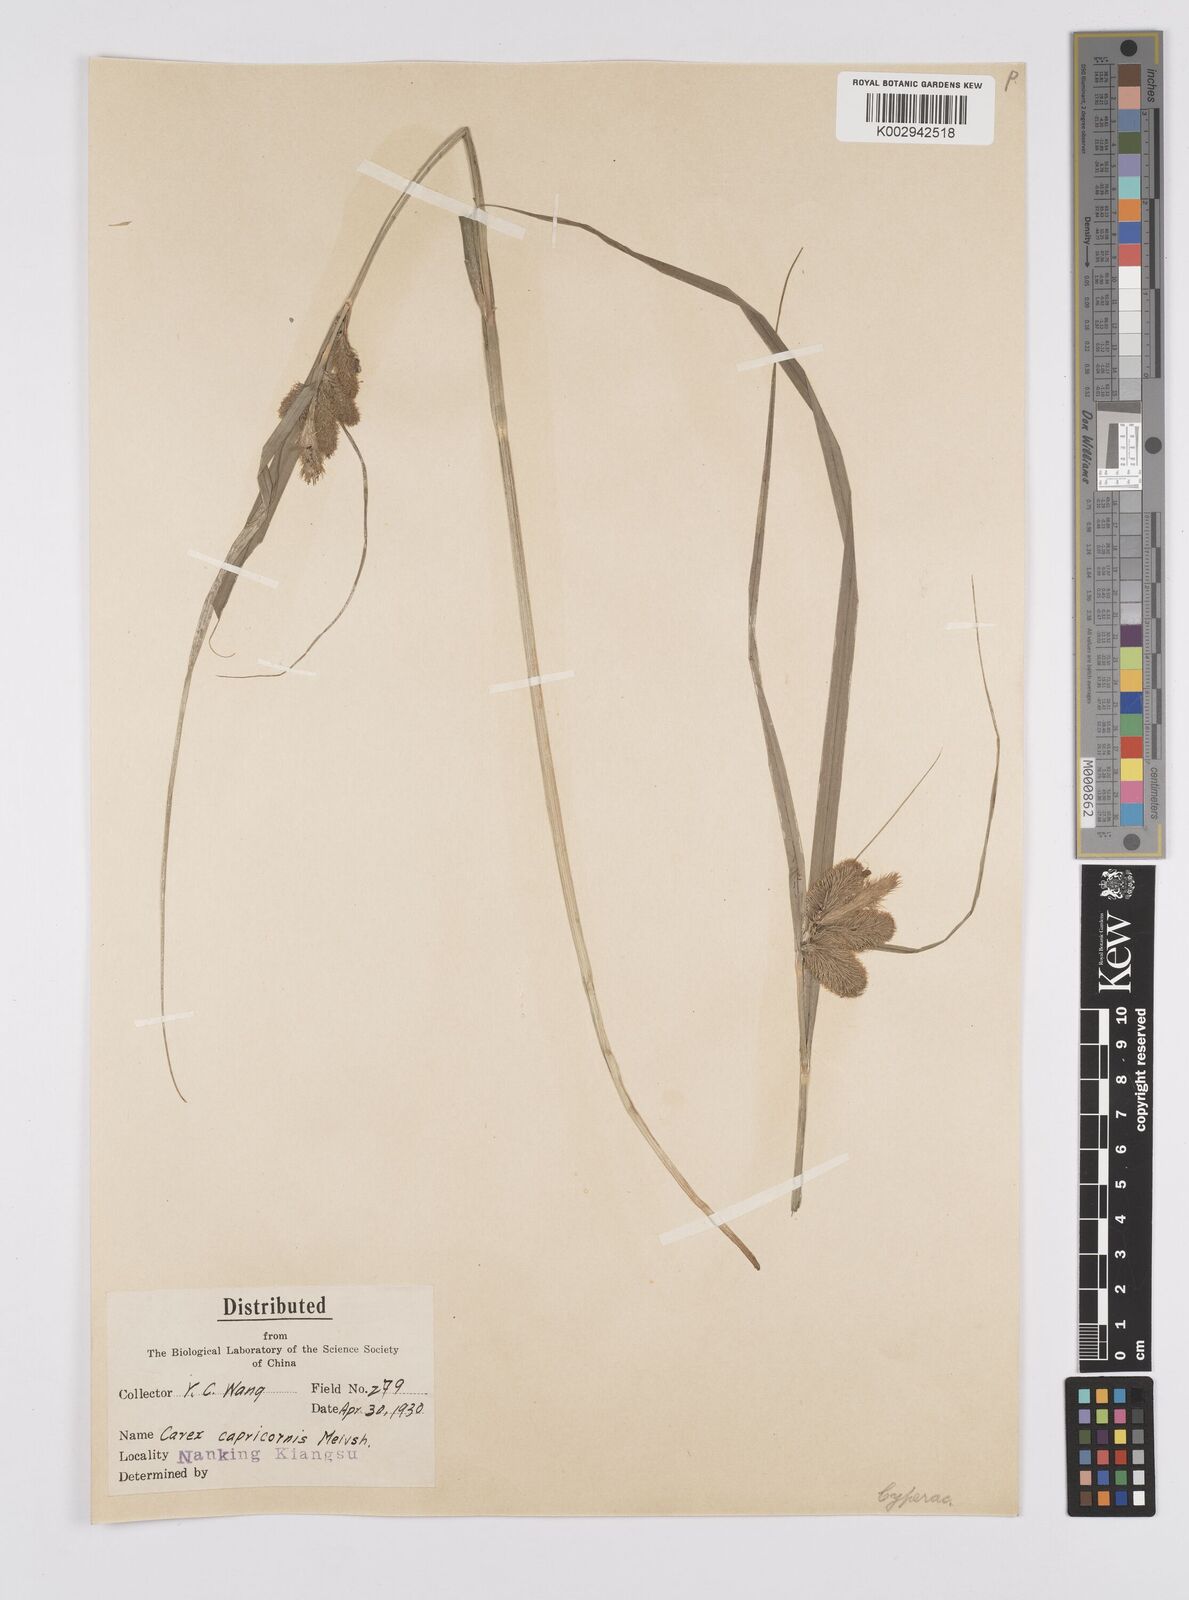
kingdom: Plantae
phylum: Tracheophyta
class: Liliopsida
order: Poales
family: Cyperaceae
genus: Carex
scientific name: Carex capricornis
